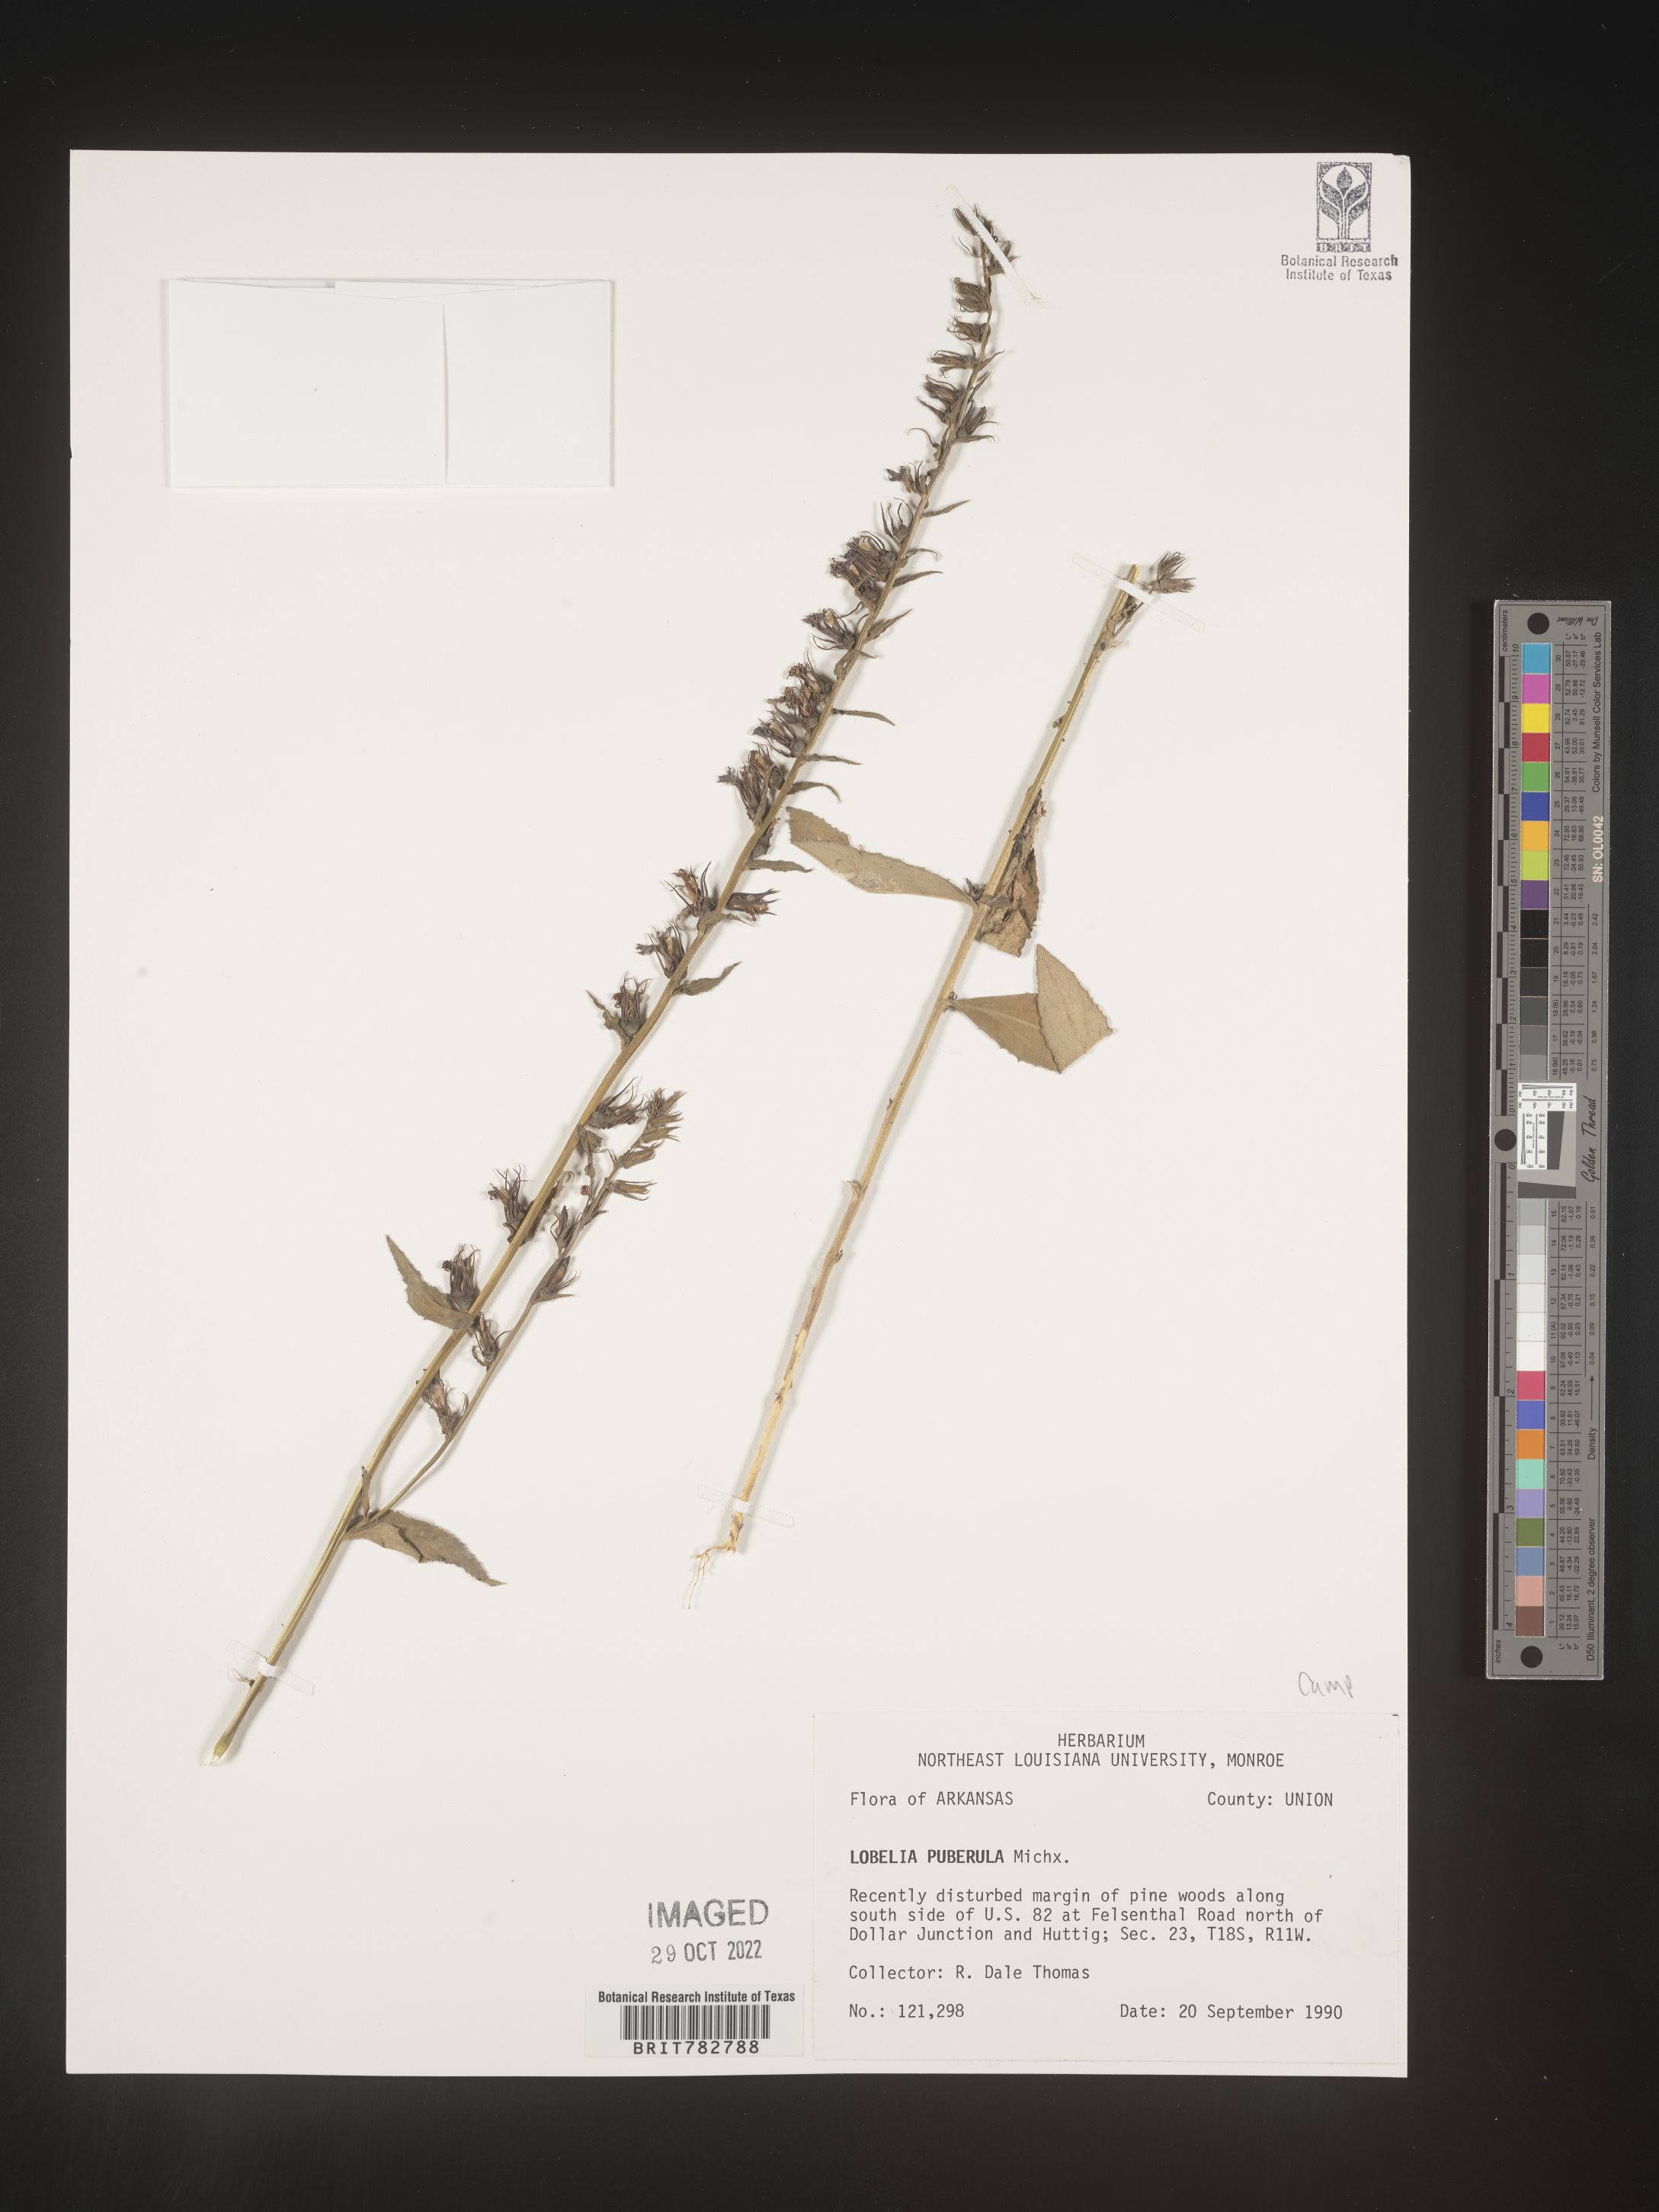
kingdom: Plantae
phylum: Tracheophyta
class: Magnoliopsida
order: Asterales
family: Campanulaceae
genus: Lobelia
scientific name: Lobelia puberula
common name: Purple dewdrop
